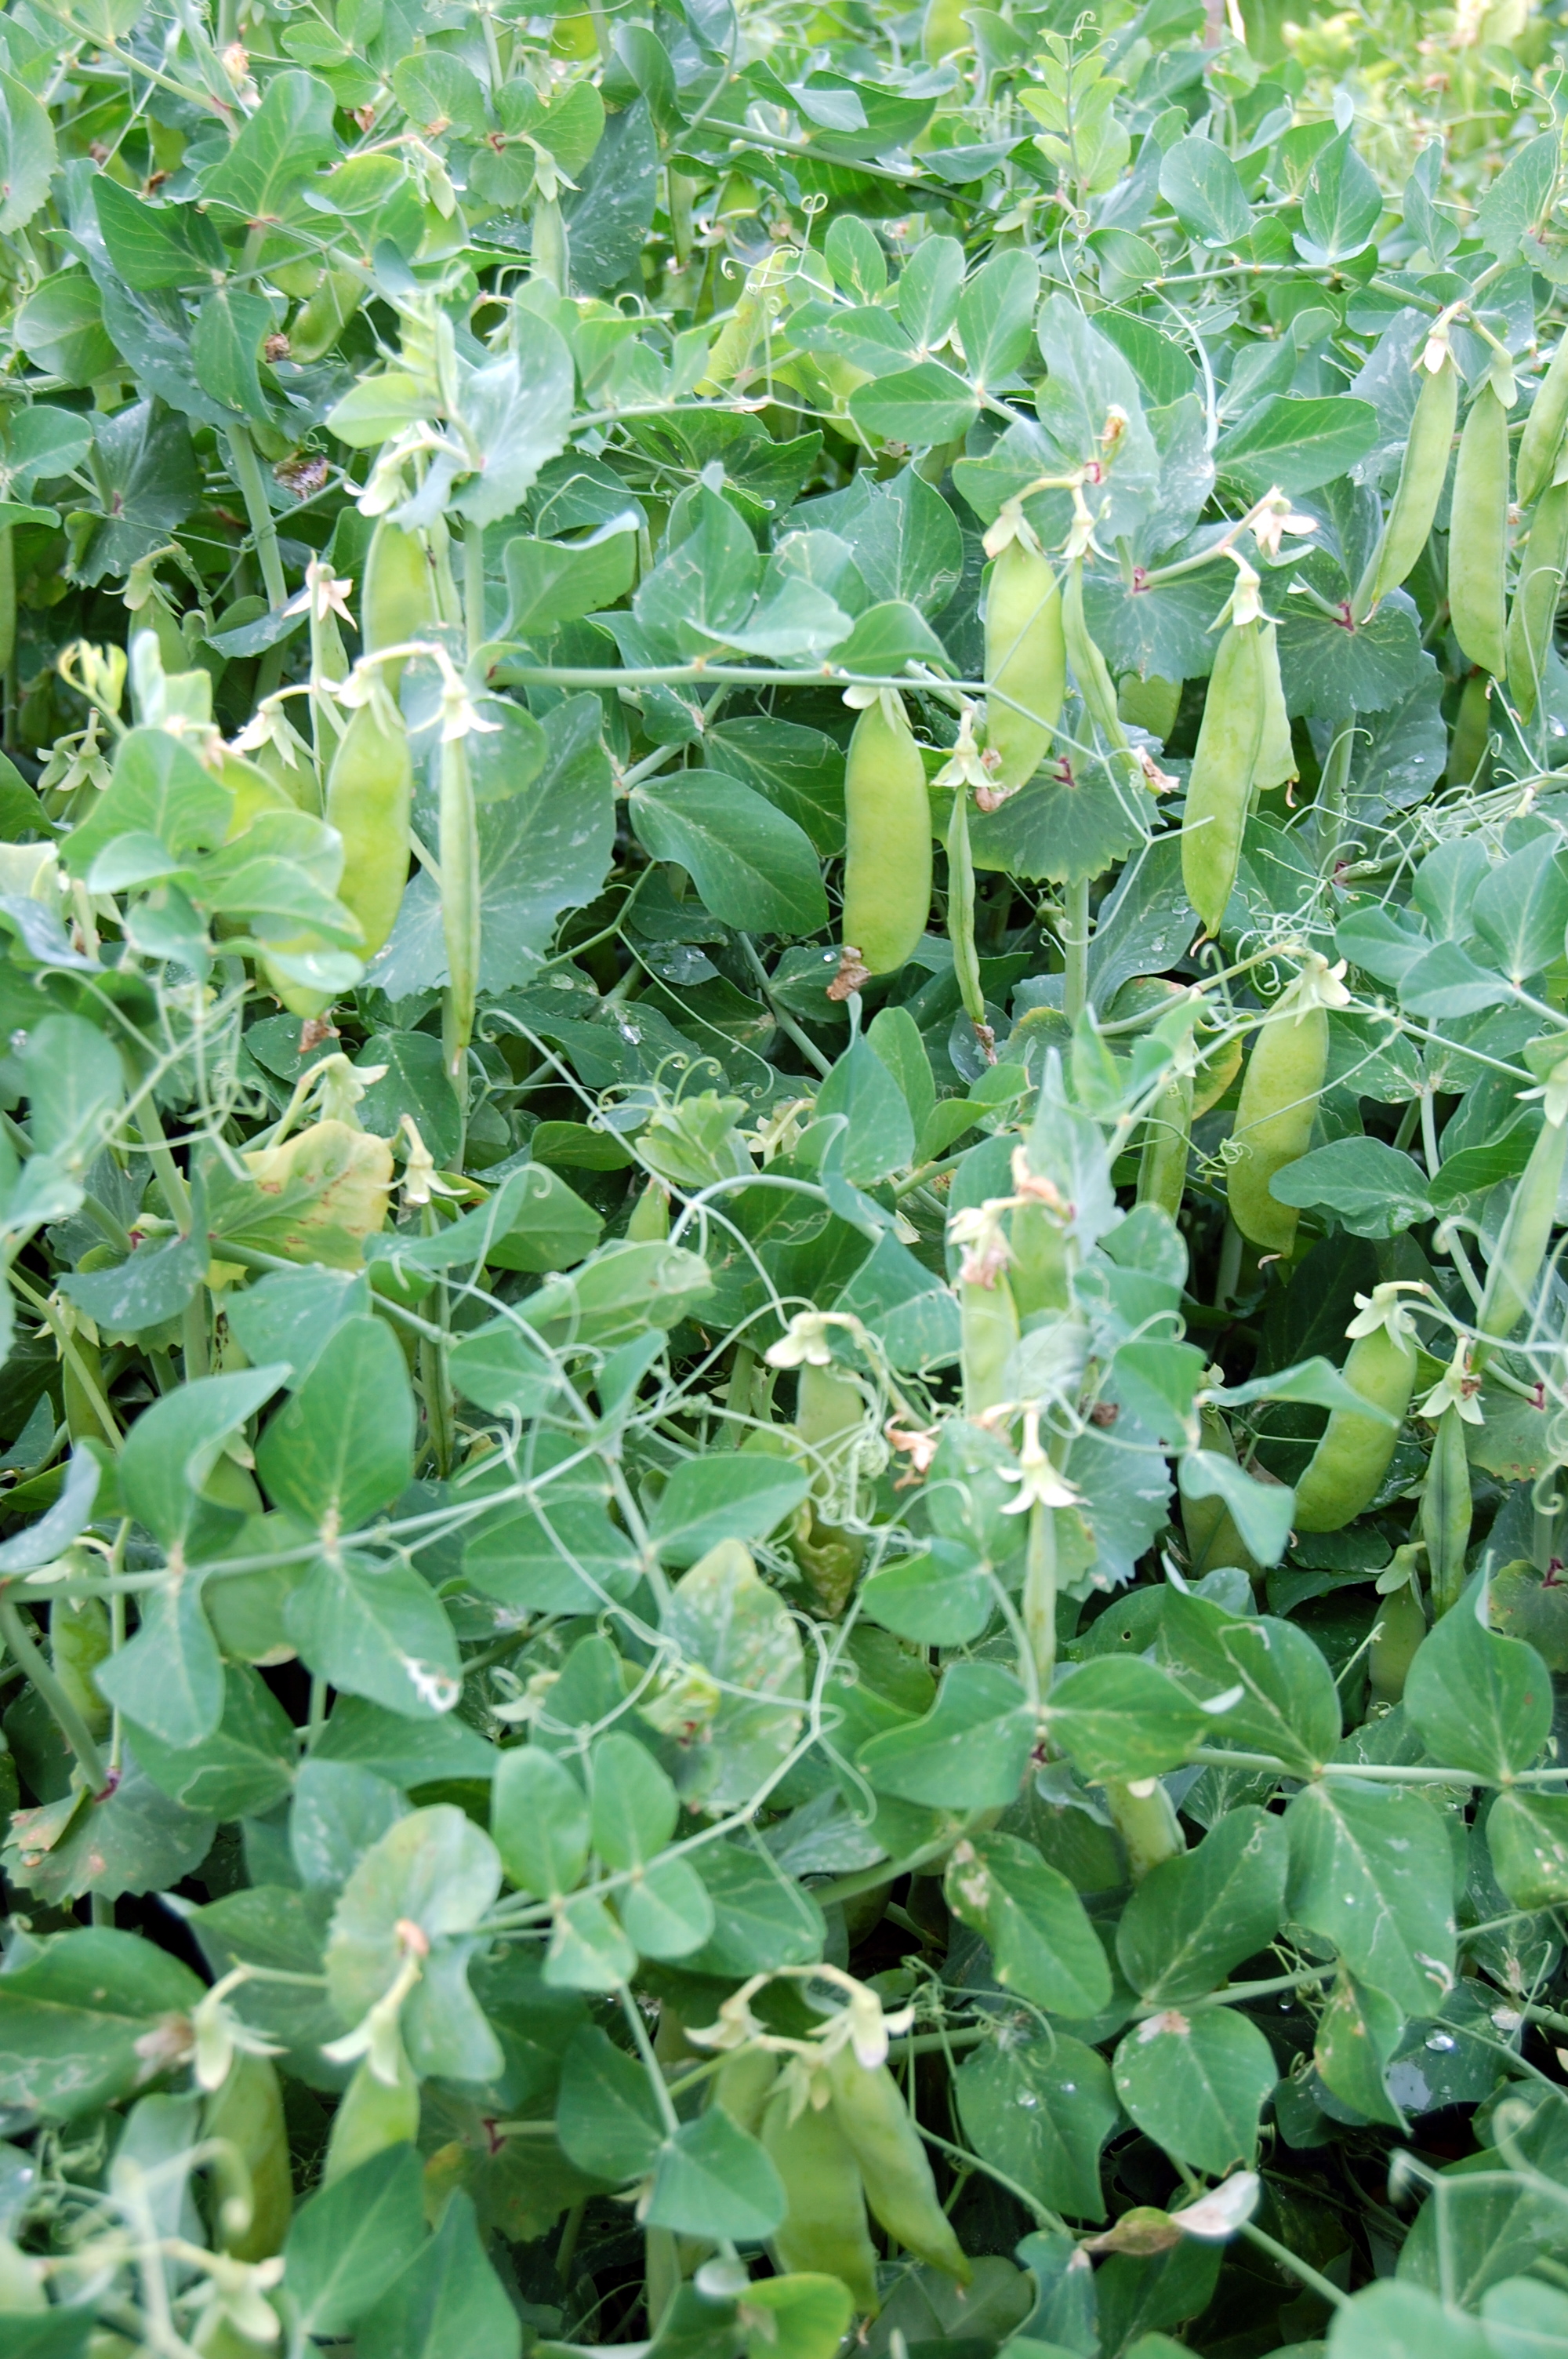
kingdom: Plantae
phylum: Tracheophyta
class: Magnoliopsida
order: Fabales
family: Fabaceae
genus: Lathyrus
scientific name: Lathyrus oleraceus
